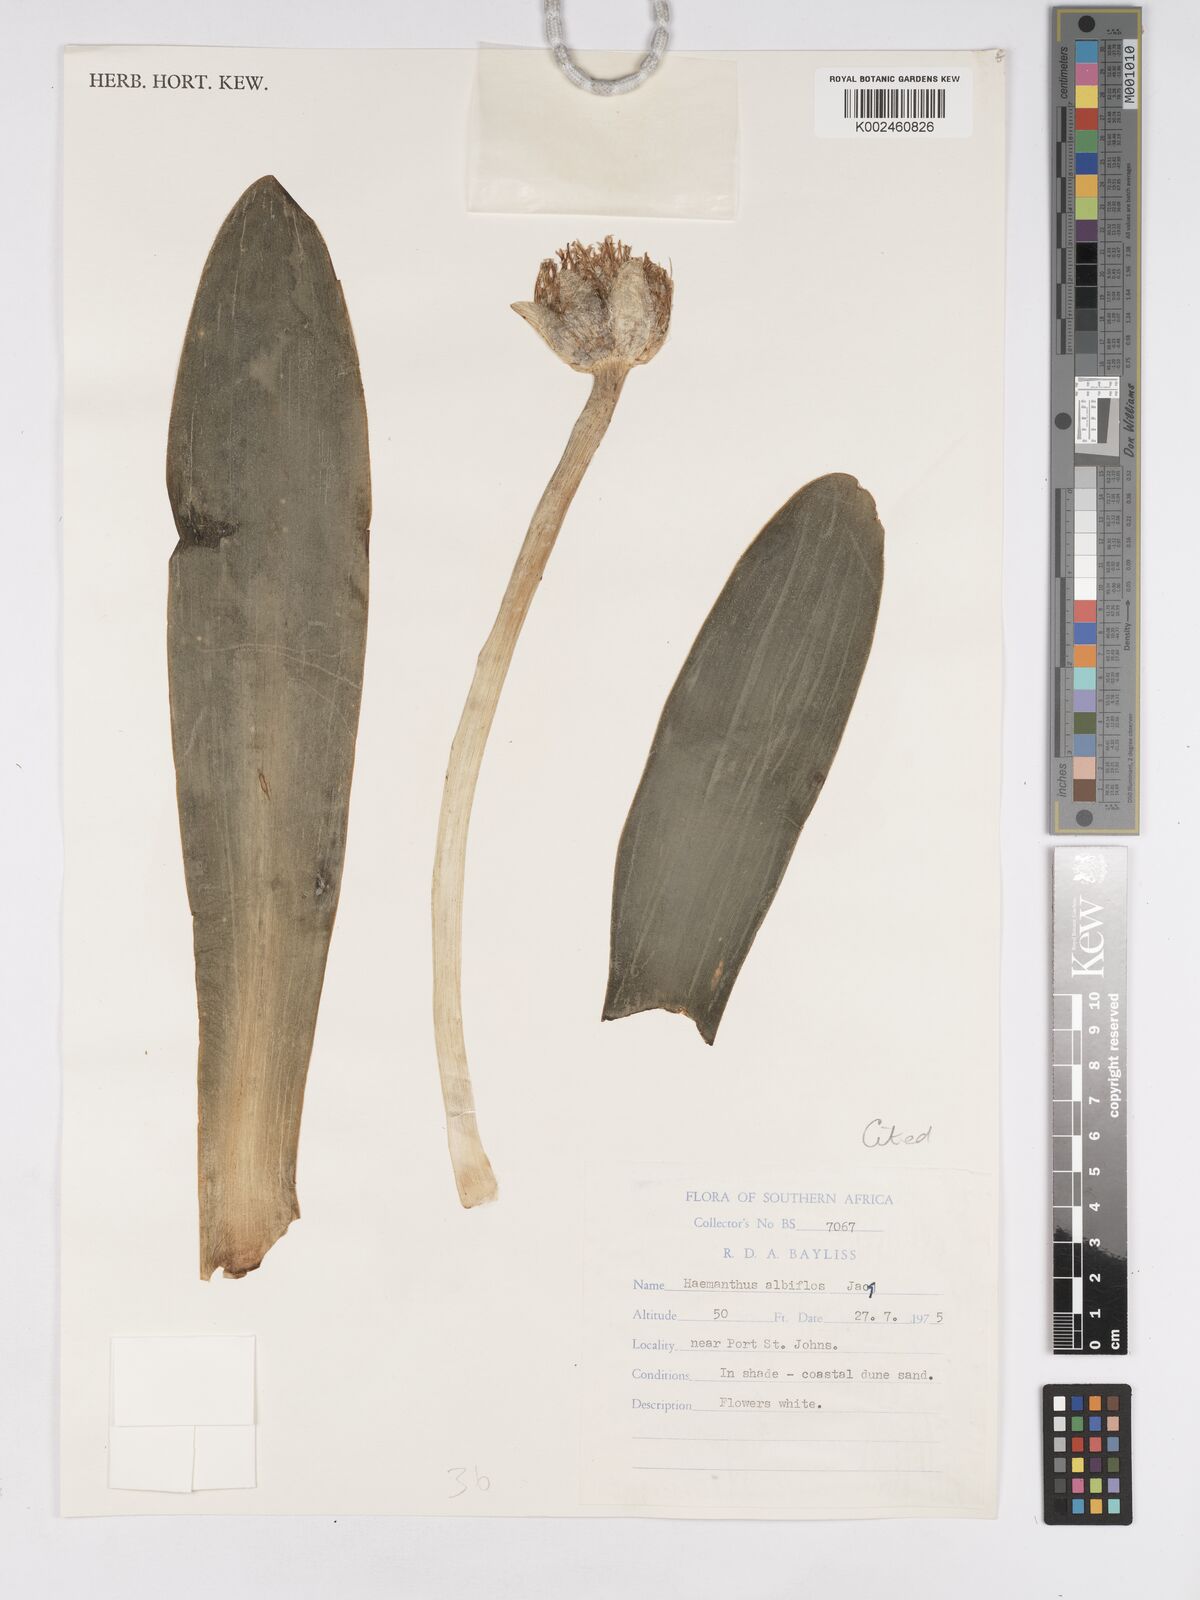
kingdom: Plantae
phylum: Tracheophyta
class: Liliopsida
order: Asparagales
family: Amaryllidaceae
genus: Haemanthus
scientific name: Haemanthus albiflos
